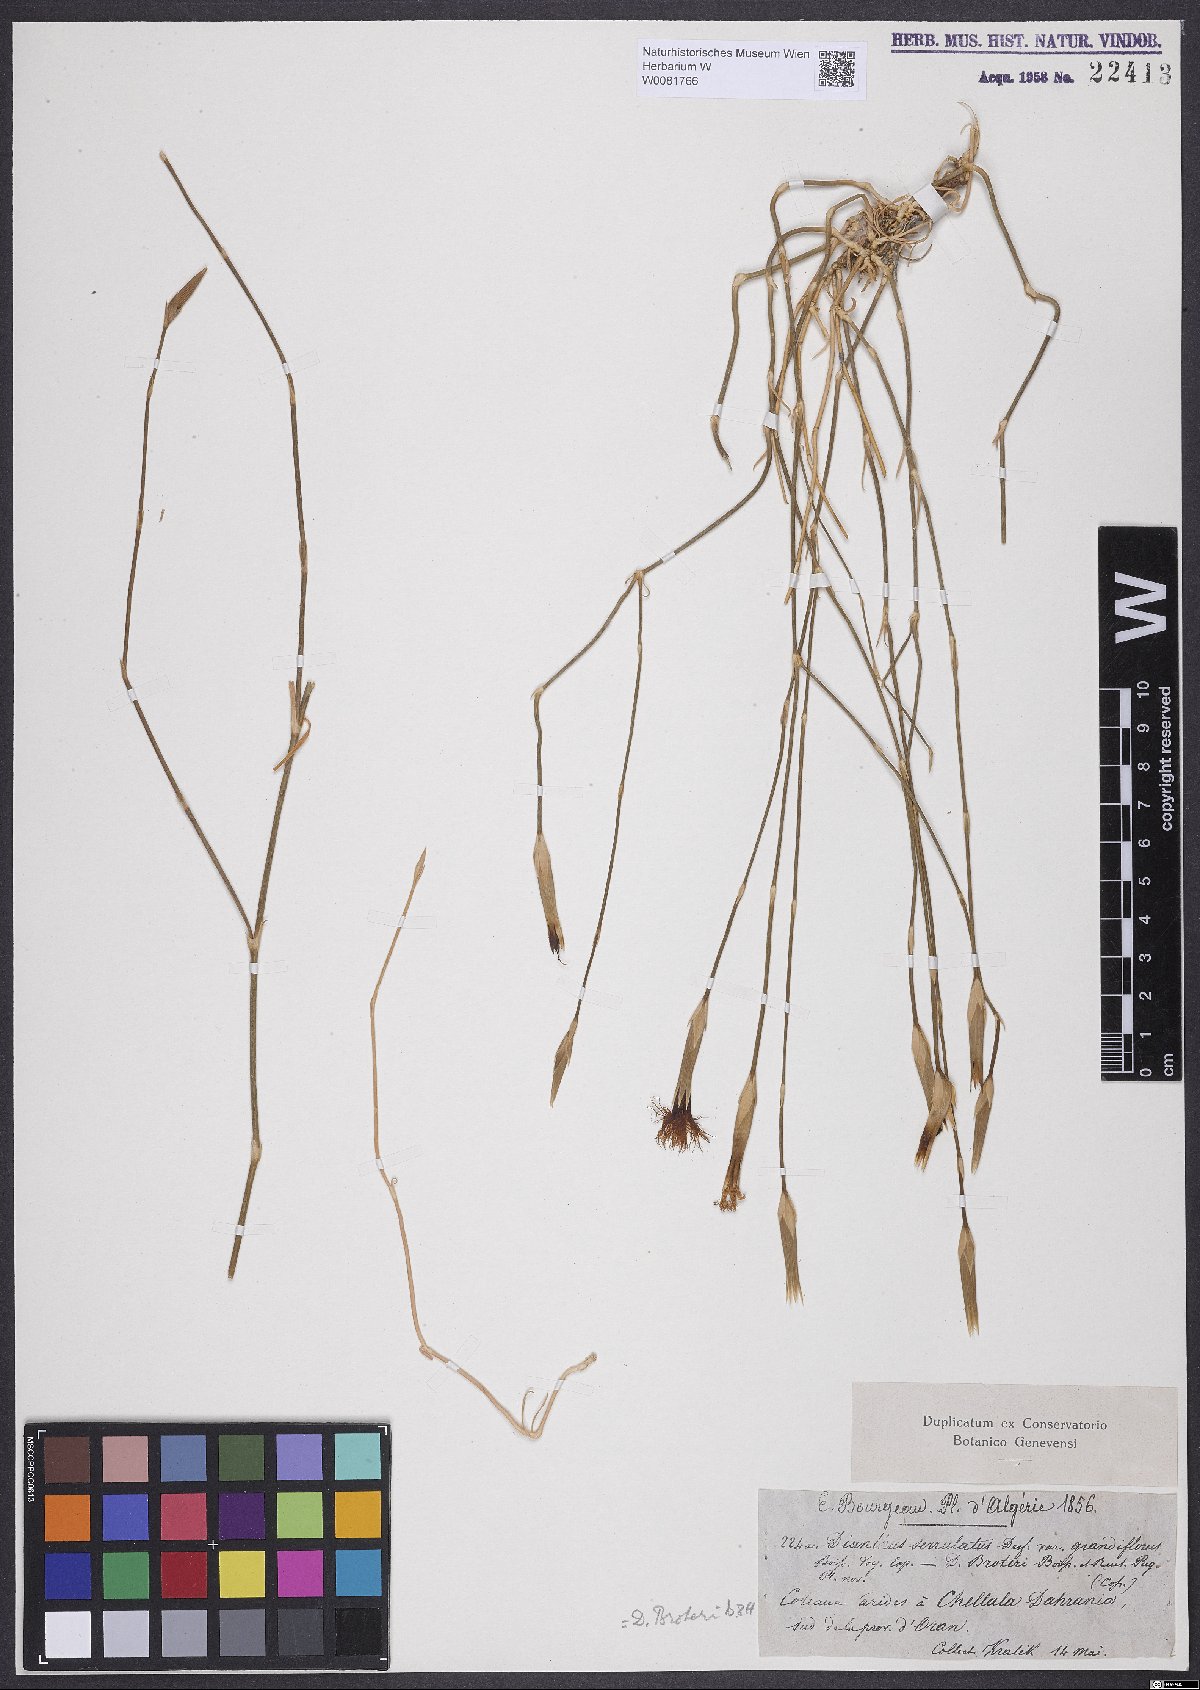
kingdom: Plantae
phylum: Tracheophyta
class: Magnoliopsida
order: Caryophyllales
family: Caryophyllaceae
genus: Dianthus
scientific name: Dianthus broteri
